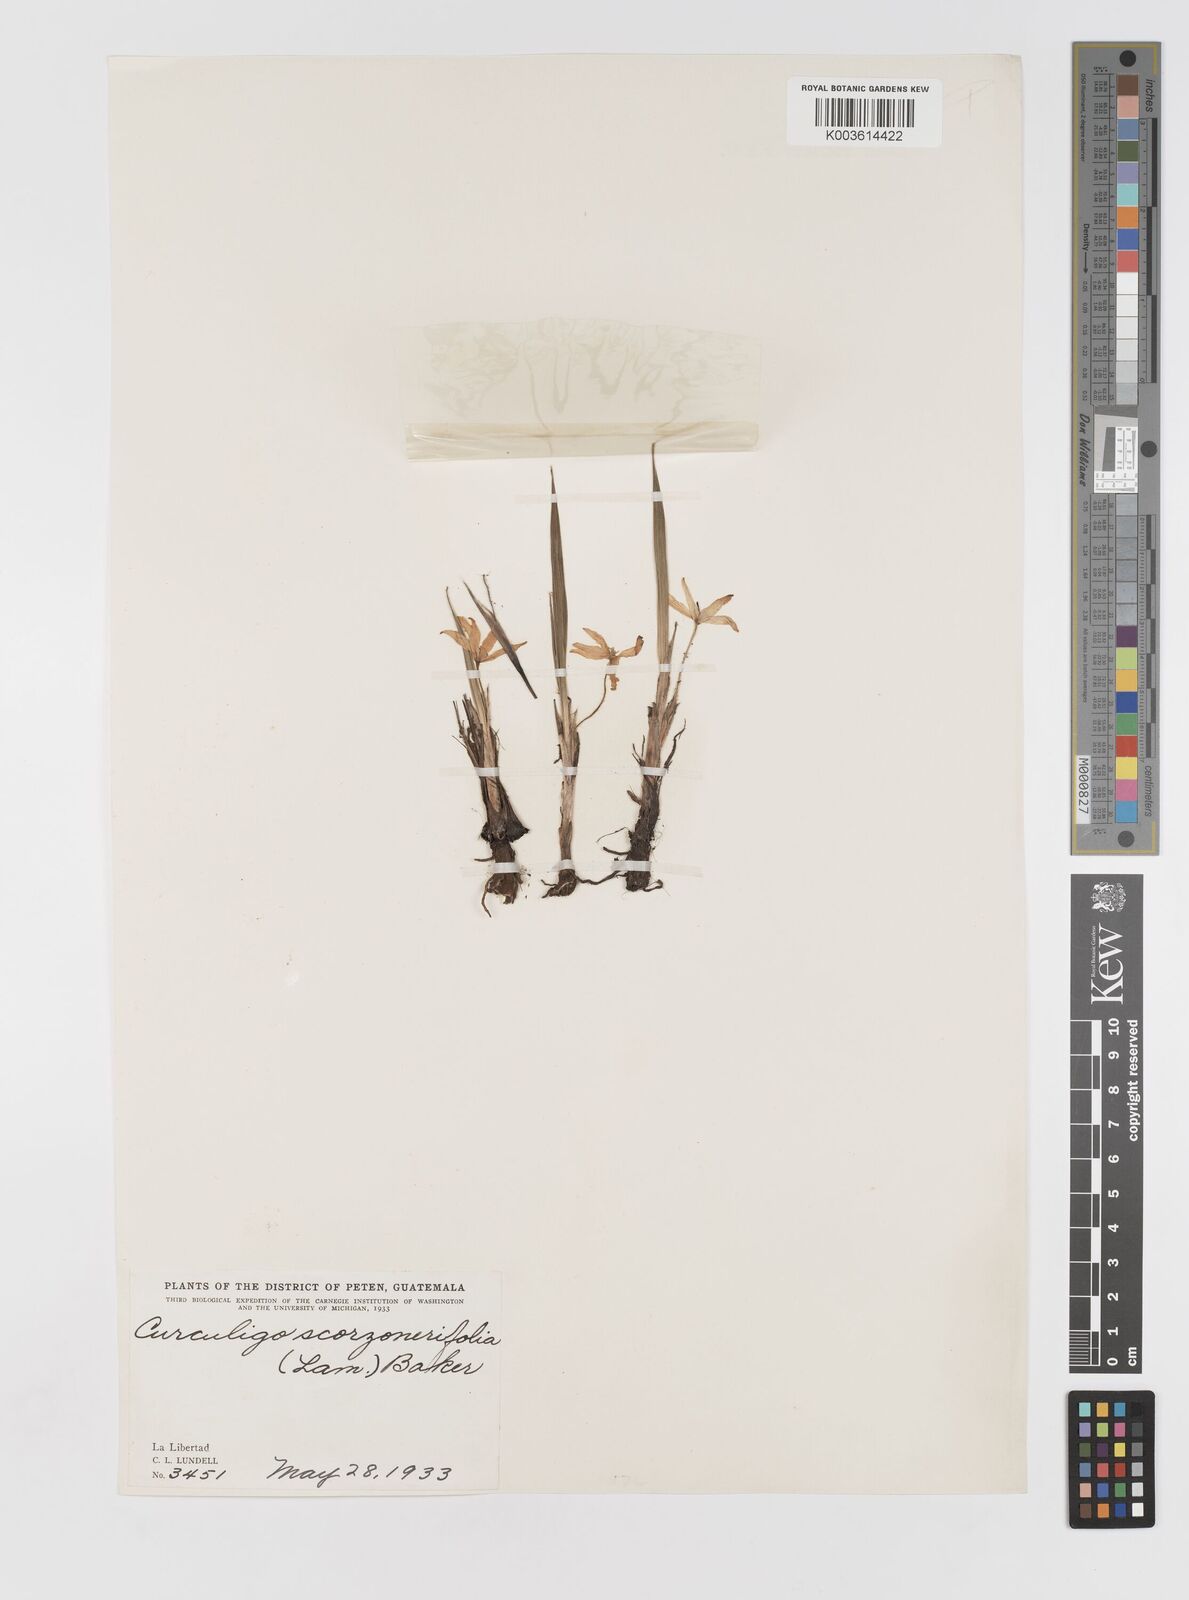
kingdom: Plantae
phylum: Tracheophyta
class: Liliopsida
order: Asparagales
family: Hypoxidaceae
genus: Curculigo
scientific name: Curculigo scorzonerifolia
